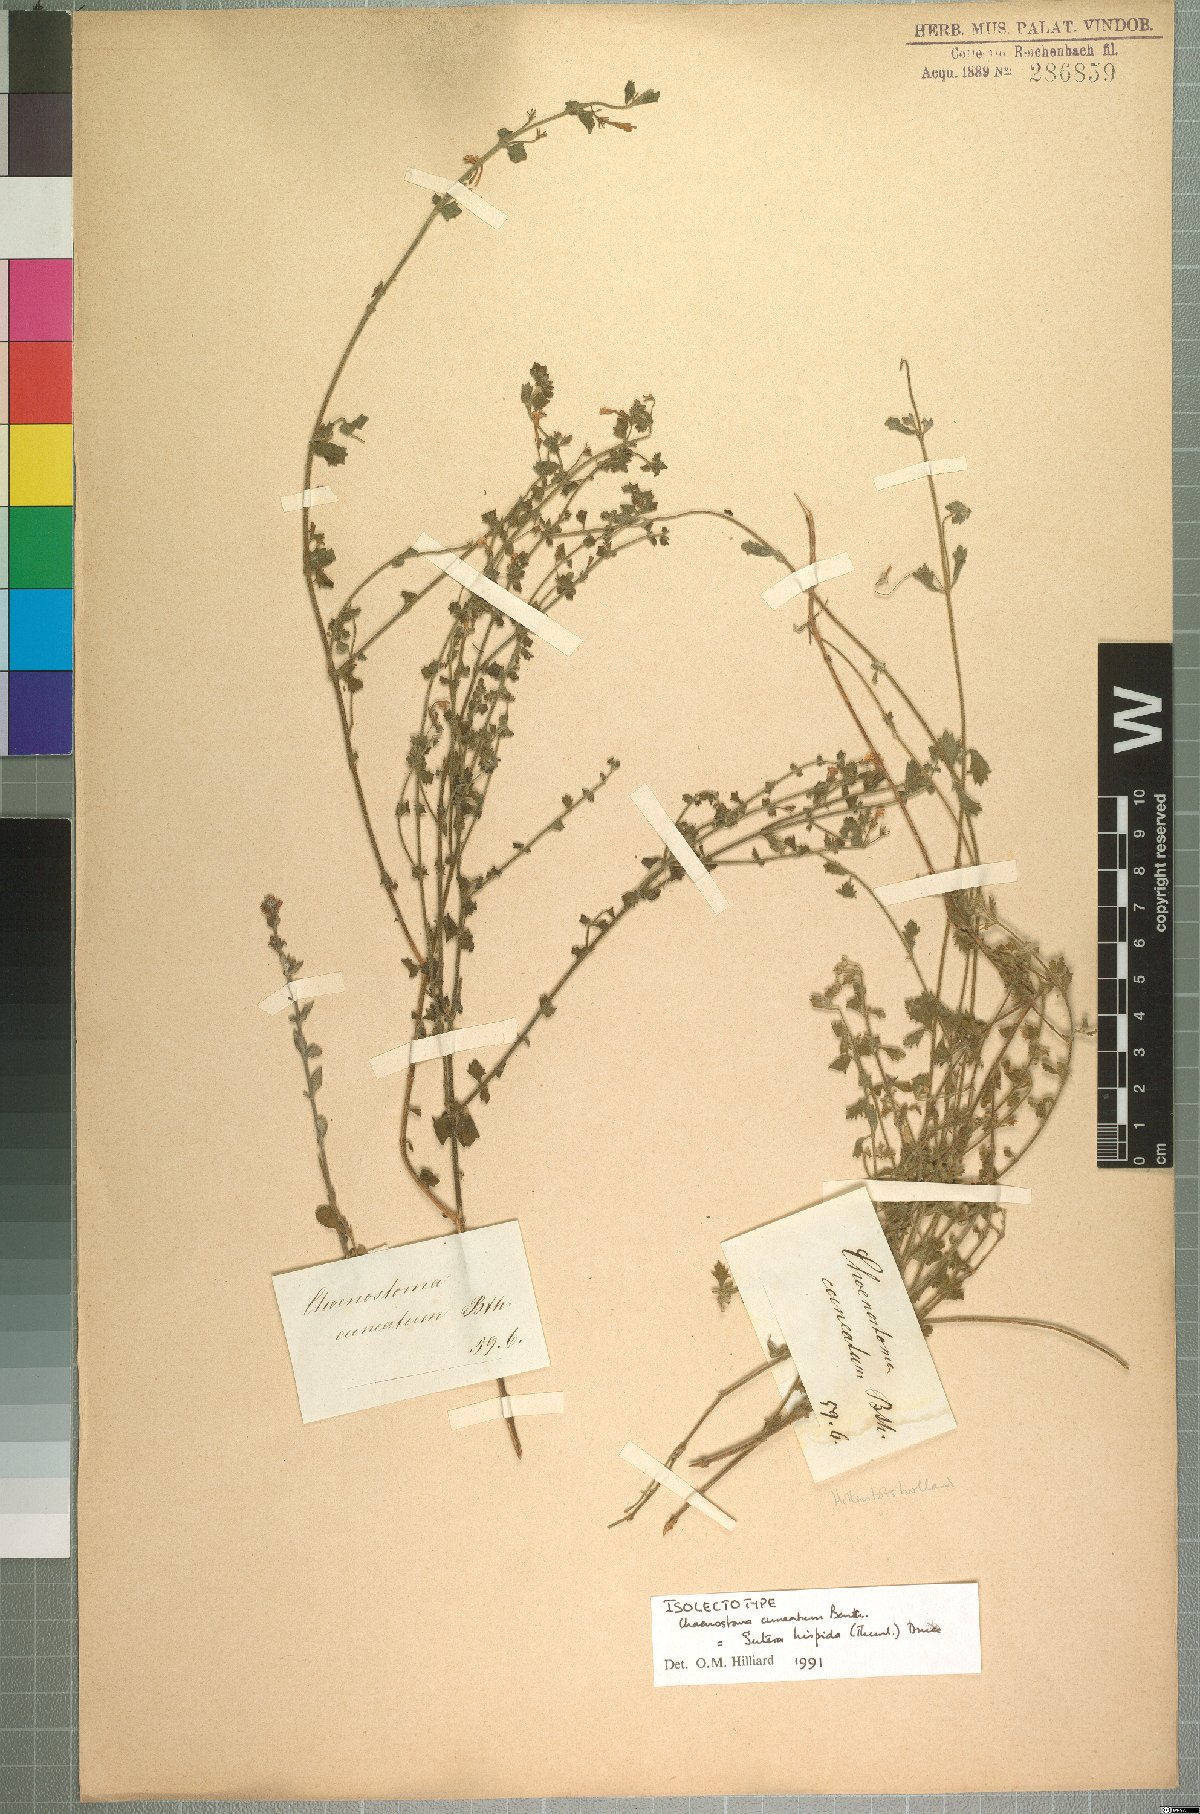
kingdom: Plantae
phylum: Tracheophyta
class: Magnoliopsida
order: Lamiales
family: Scrophulariaceae
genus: Chaenostoma
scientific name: Chaenostoma hispidum
